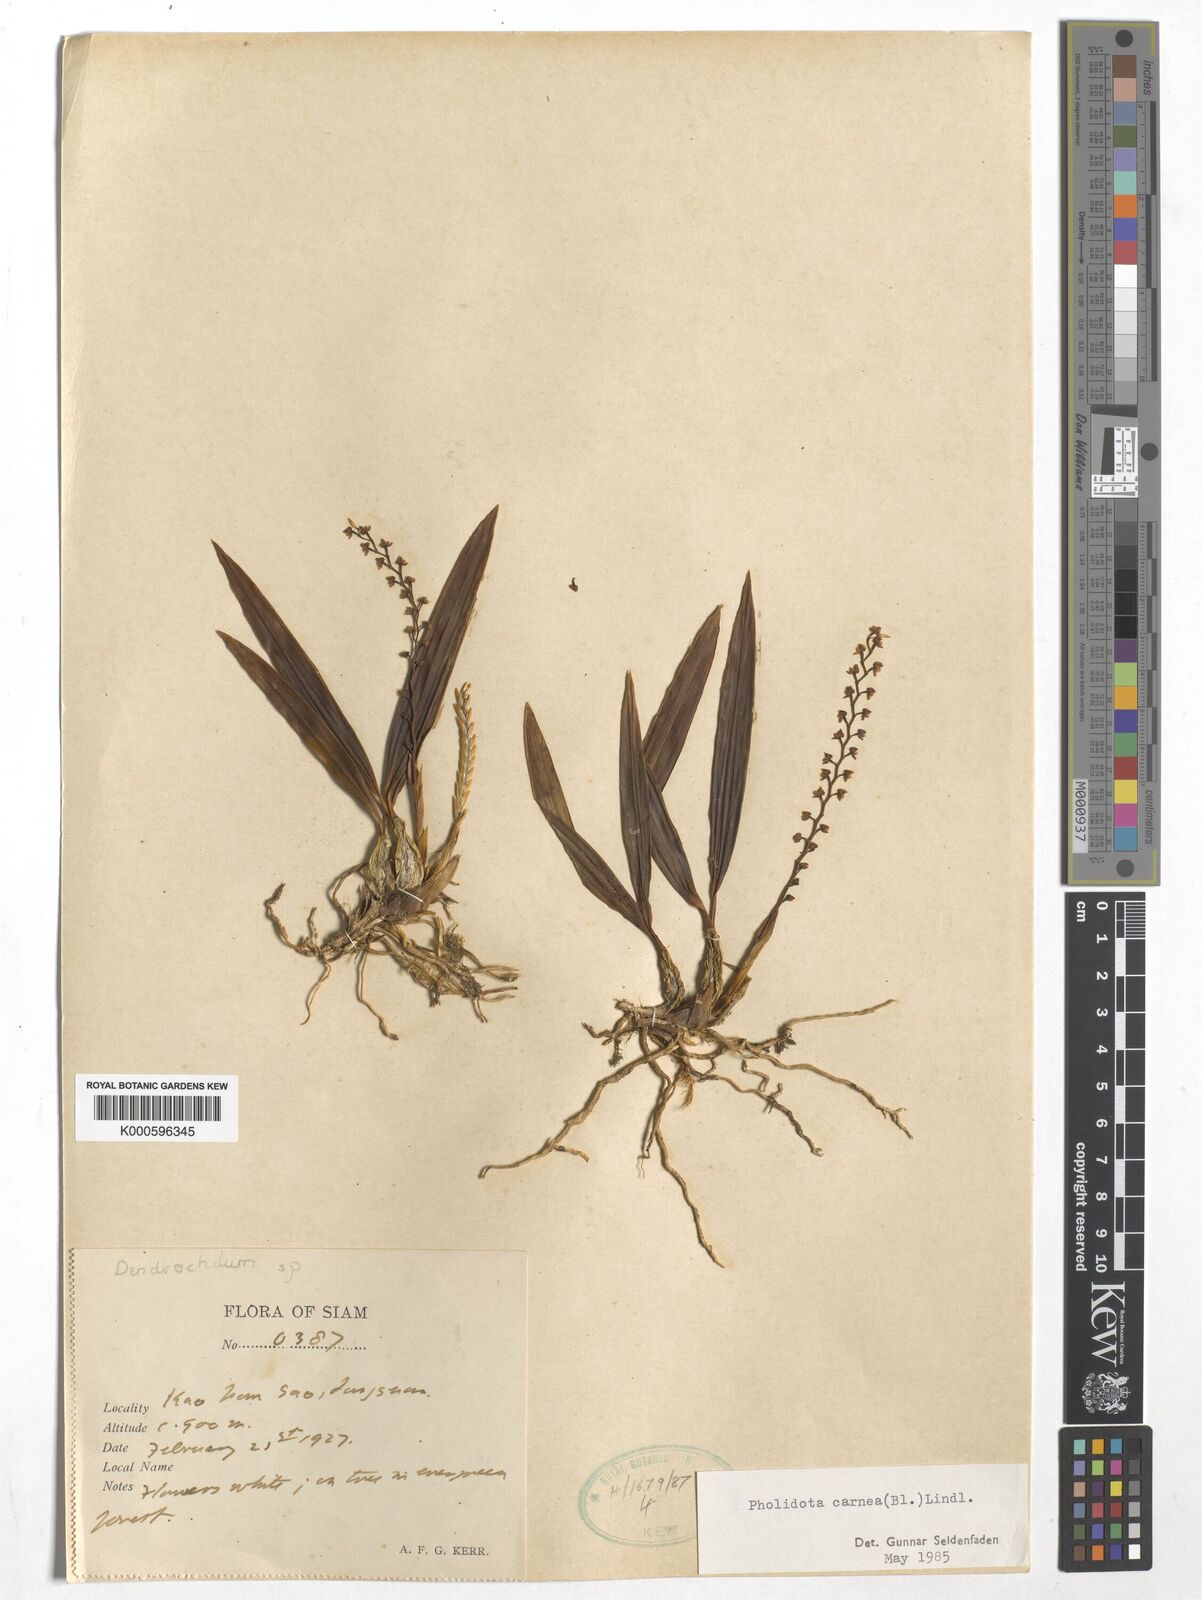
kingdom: Plantae
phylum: Tracheophyta
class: Liliopsida
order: Asparagales
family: Orchidaceae
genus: Coelogyne
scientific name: Coelogyne carnea
